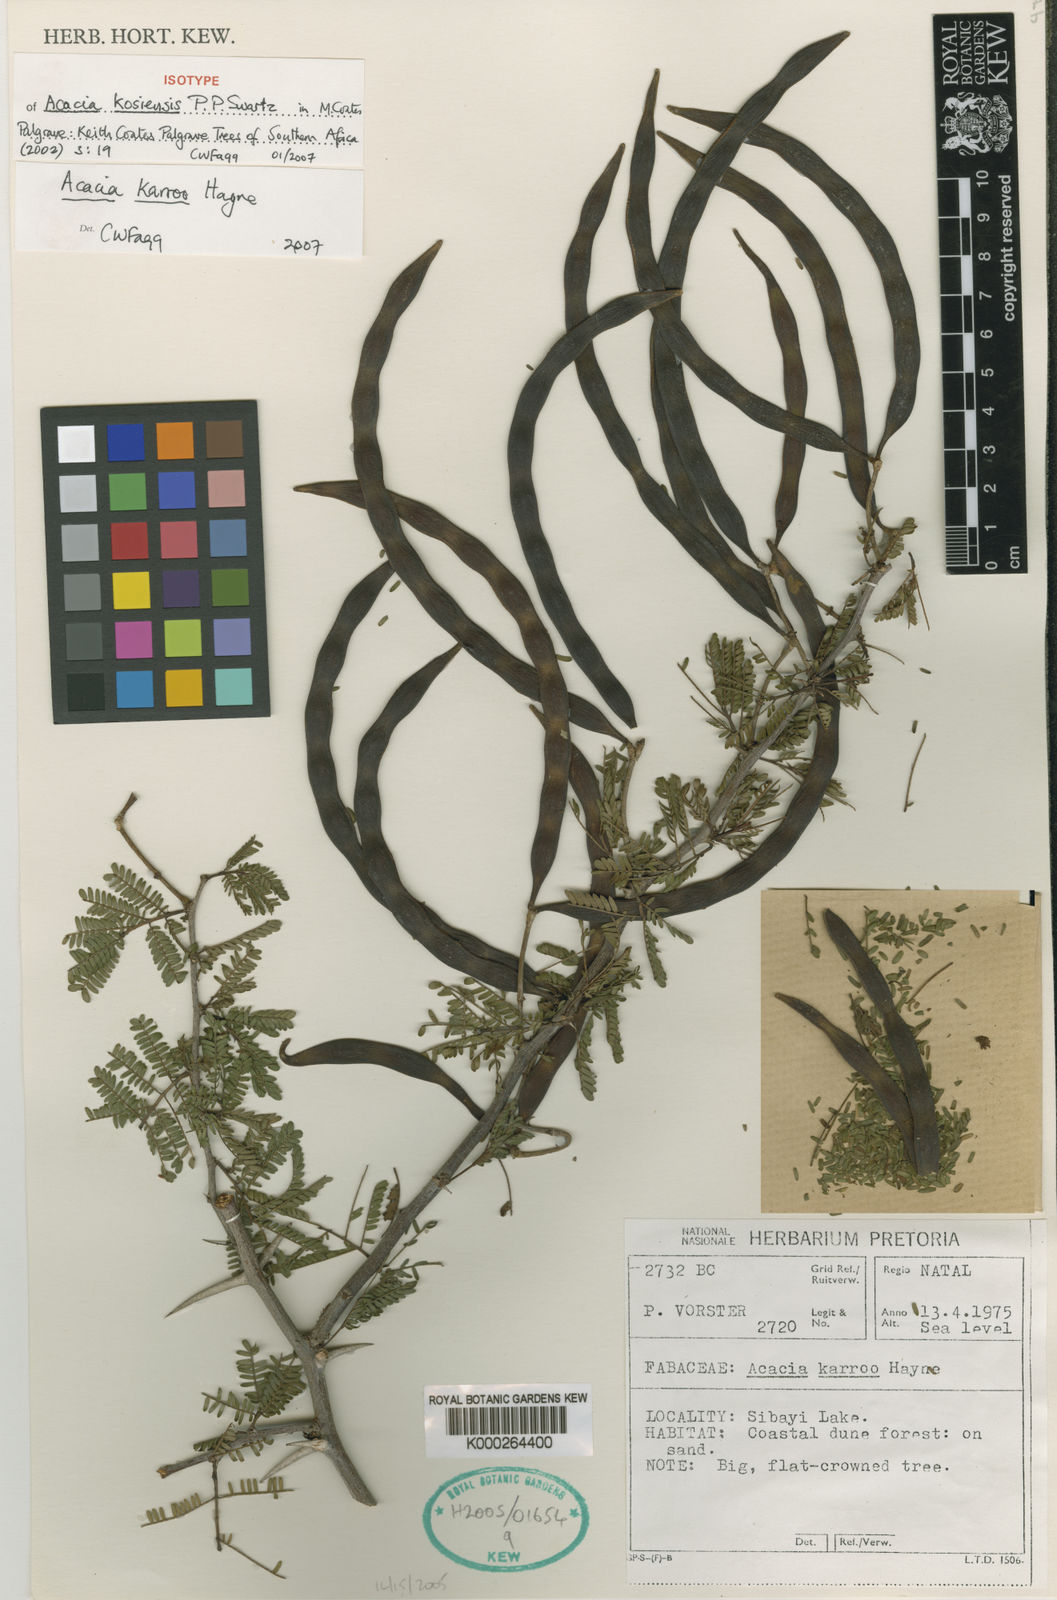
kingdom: Plantae
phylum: Tracheophyta
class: Magnoliopsida
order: Fabales
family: Fabaceae
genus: Vachellia
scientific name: Vachellia karroo
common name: Sweet thorn
